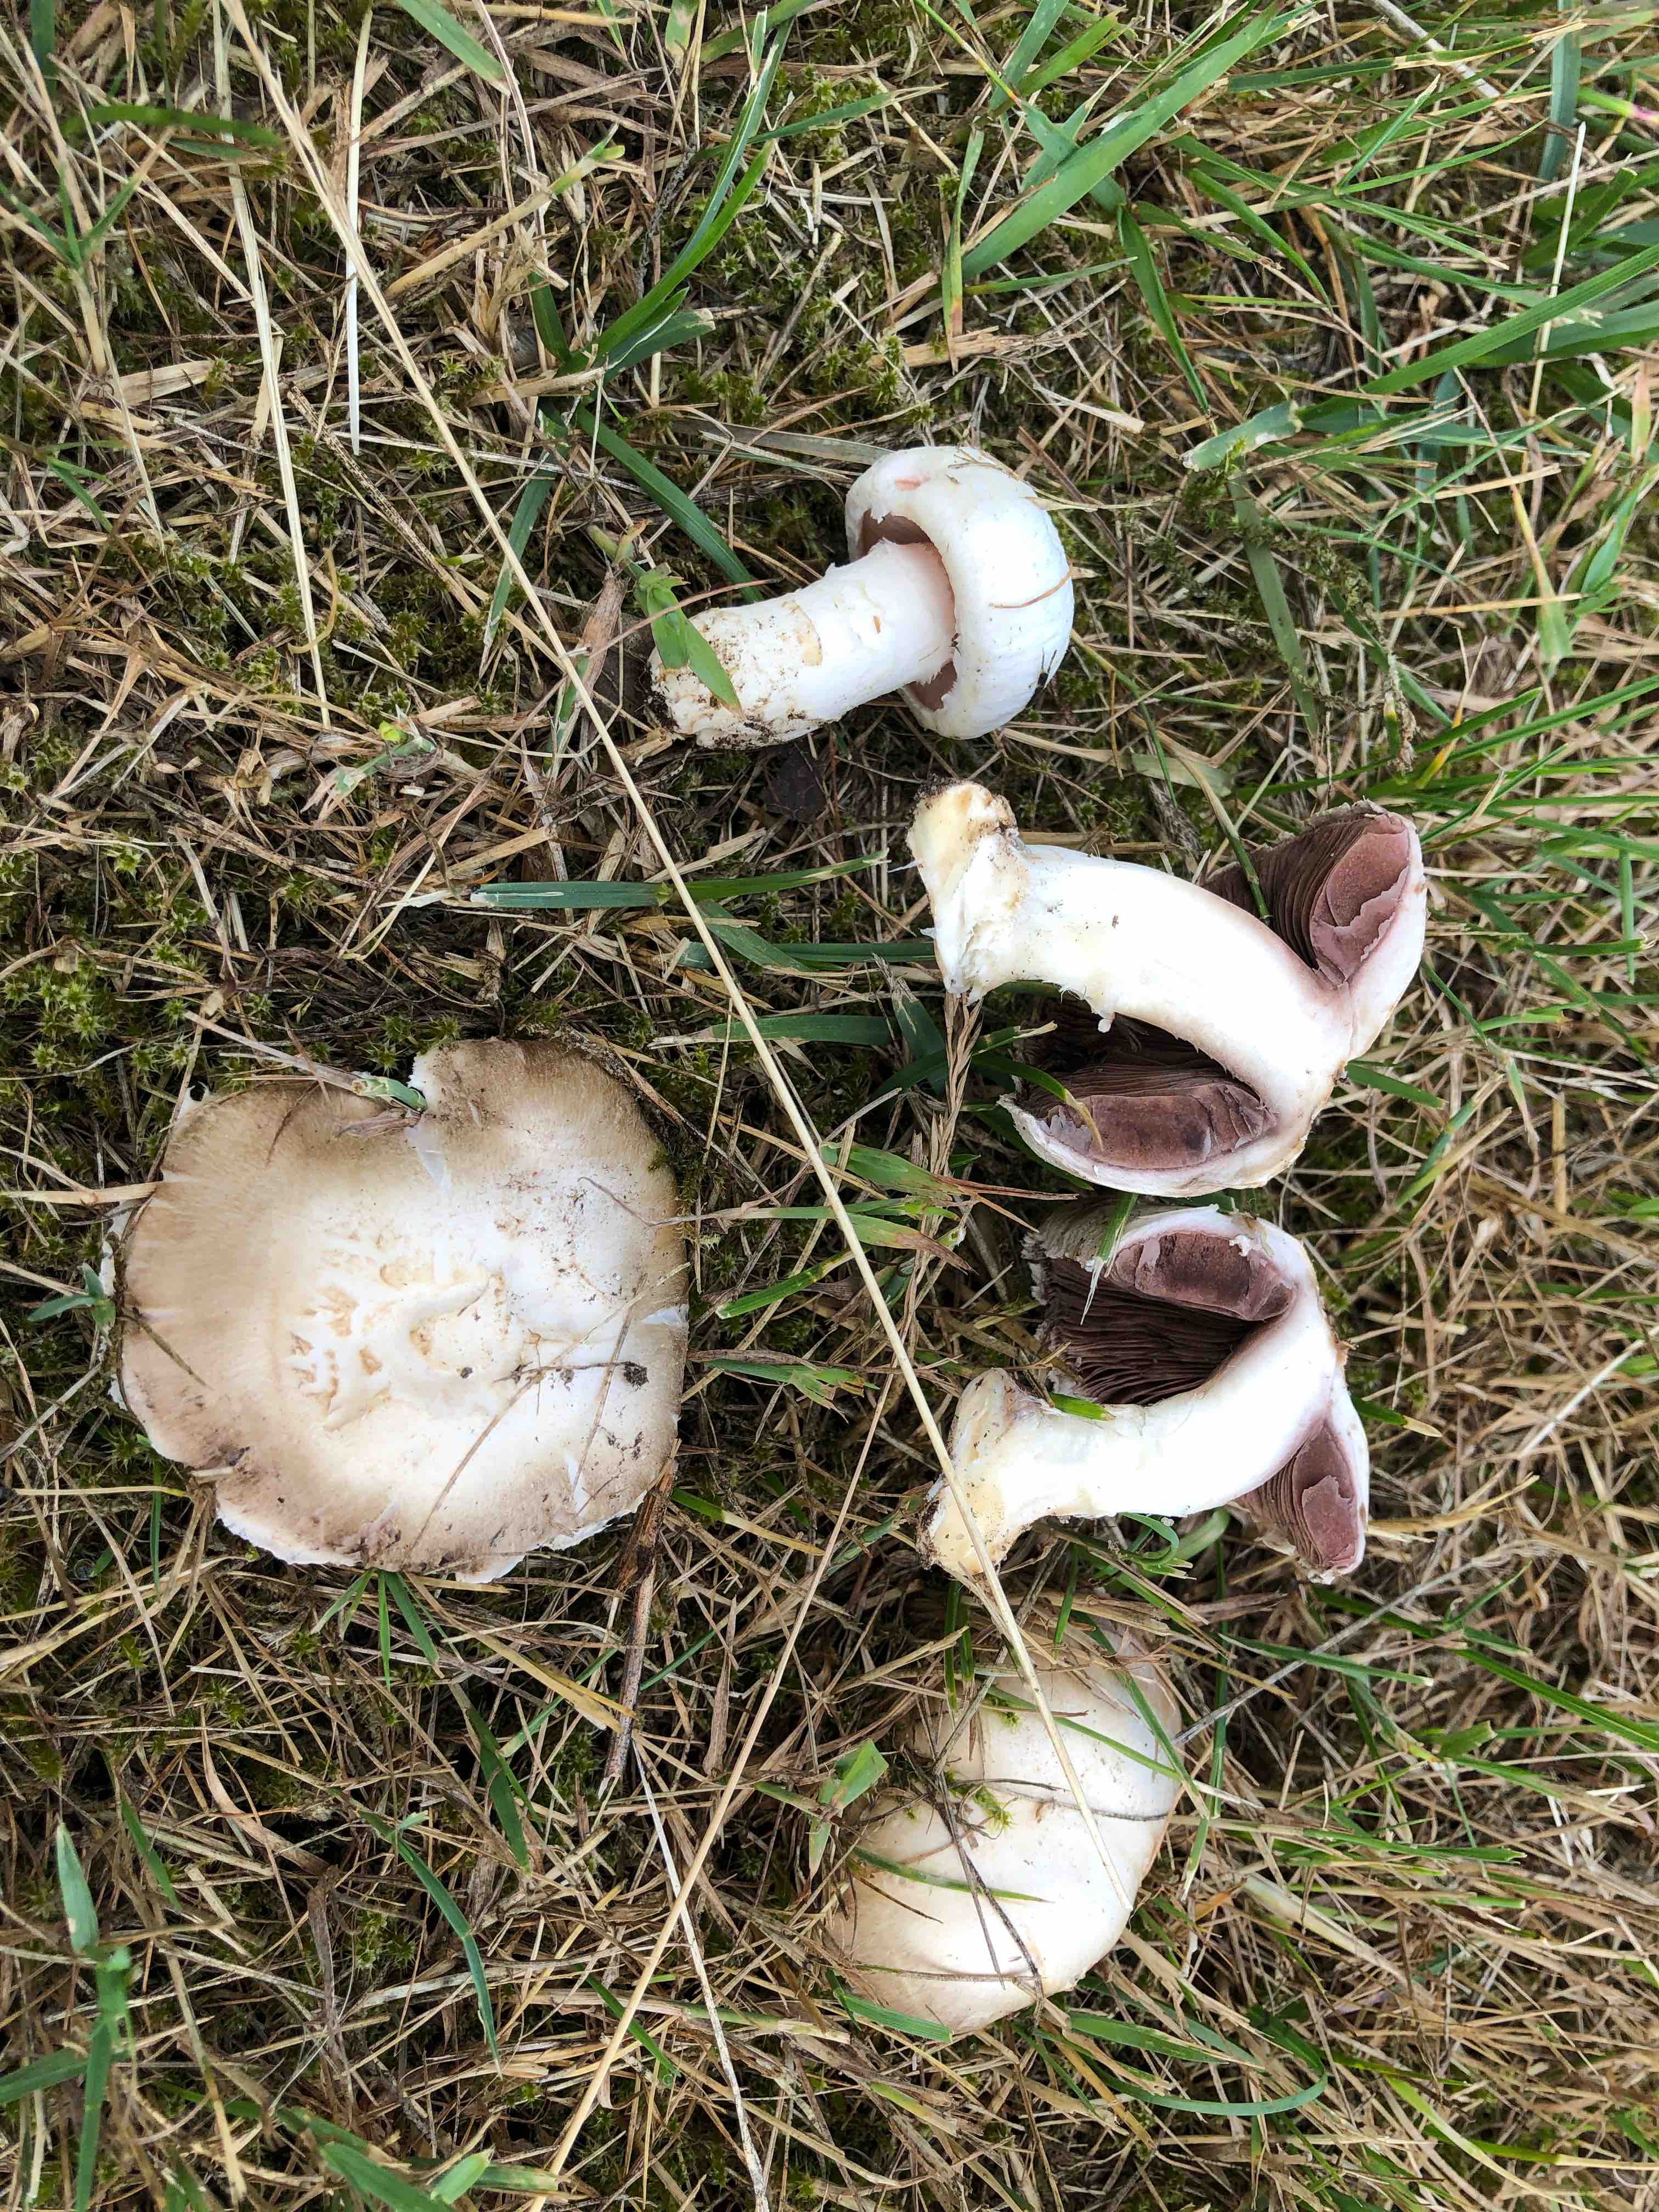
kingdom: Fungi
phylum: Basidiomycota
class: Agaricomycetes
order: Agaricales
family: Agaricaceae
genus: Agaricus
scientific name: Agaricus
